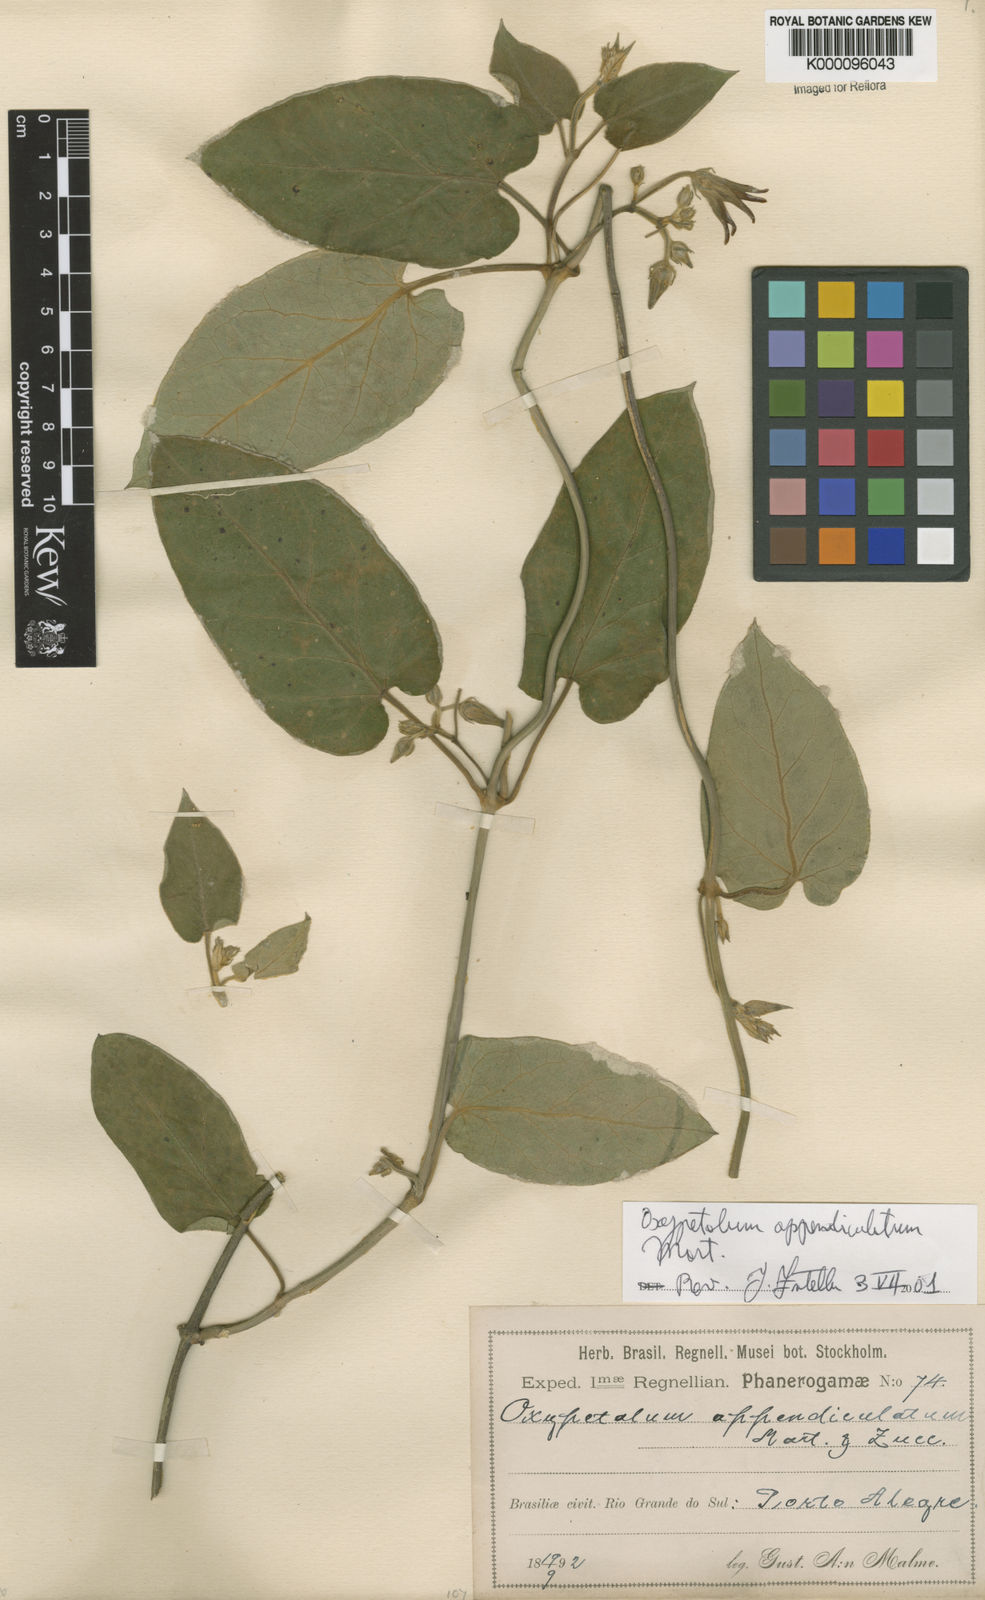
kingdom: Plantae
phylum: Tracheophyta
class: Magnoliopsida
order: Gentianales
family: Apocynaceae
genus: Oxypetalum
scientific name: Oxypetalum appendiculatum
